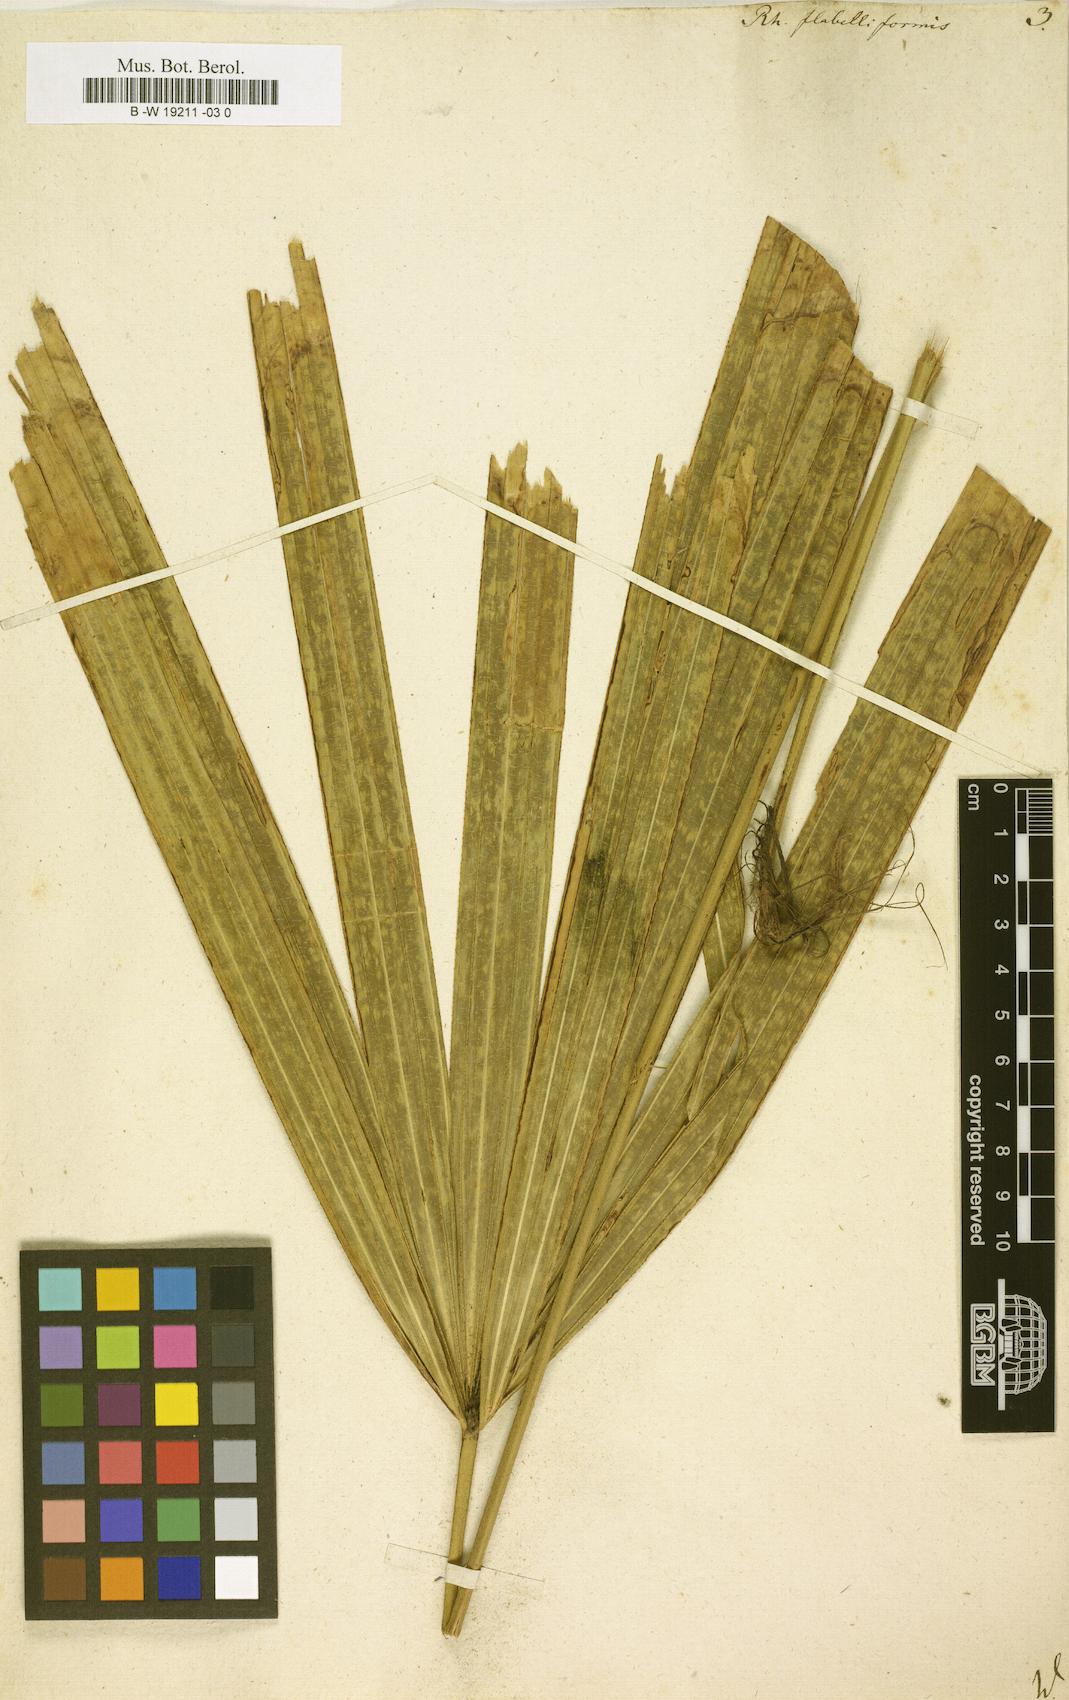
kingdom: Plantae
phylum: Tracheophyta
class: Liliopsida
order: Arecales
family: Arecaceae
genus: Rhapis
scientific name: Rhapis excelsa
